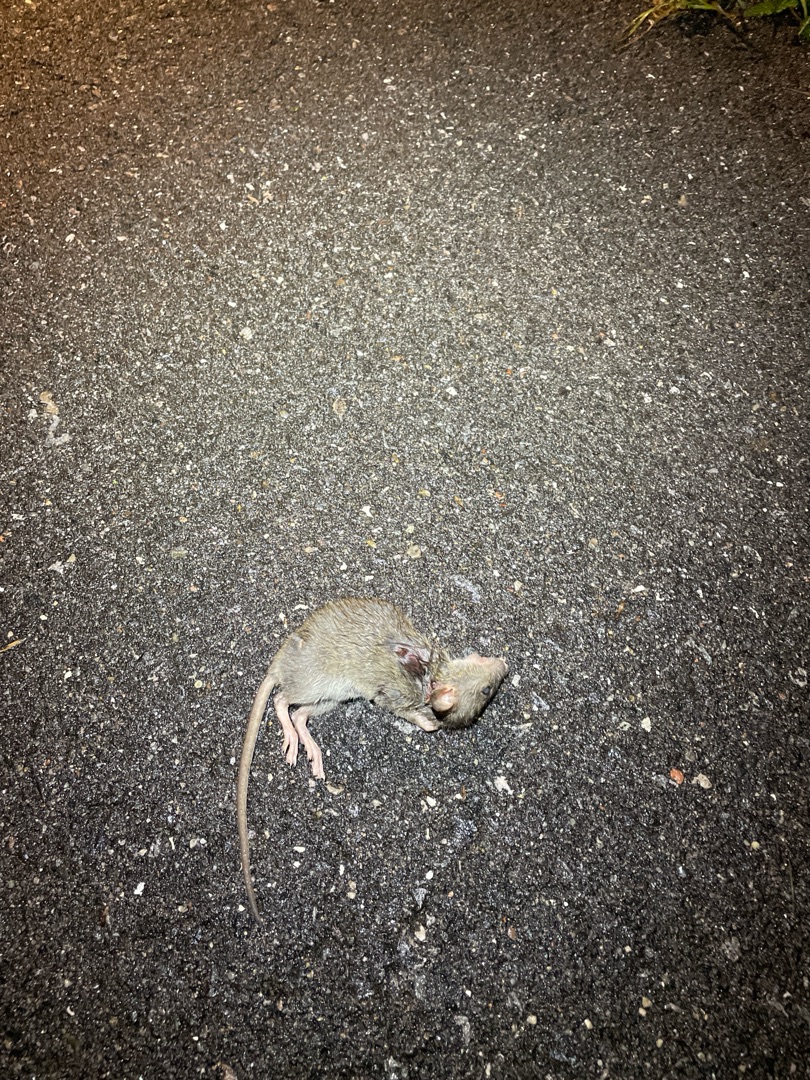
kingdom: Animalia
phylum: Chordata
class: Mammalia
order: Rodentia
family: Muridae
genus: Rattus
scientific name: Rattus norvegicus
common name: Brun rotte
